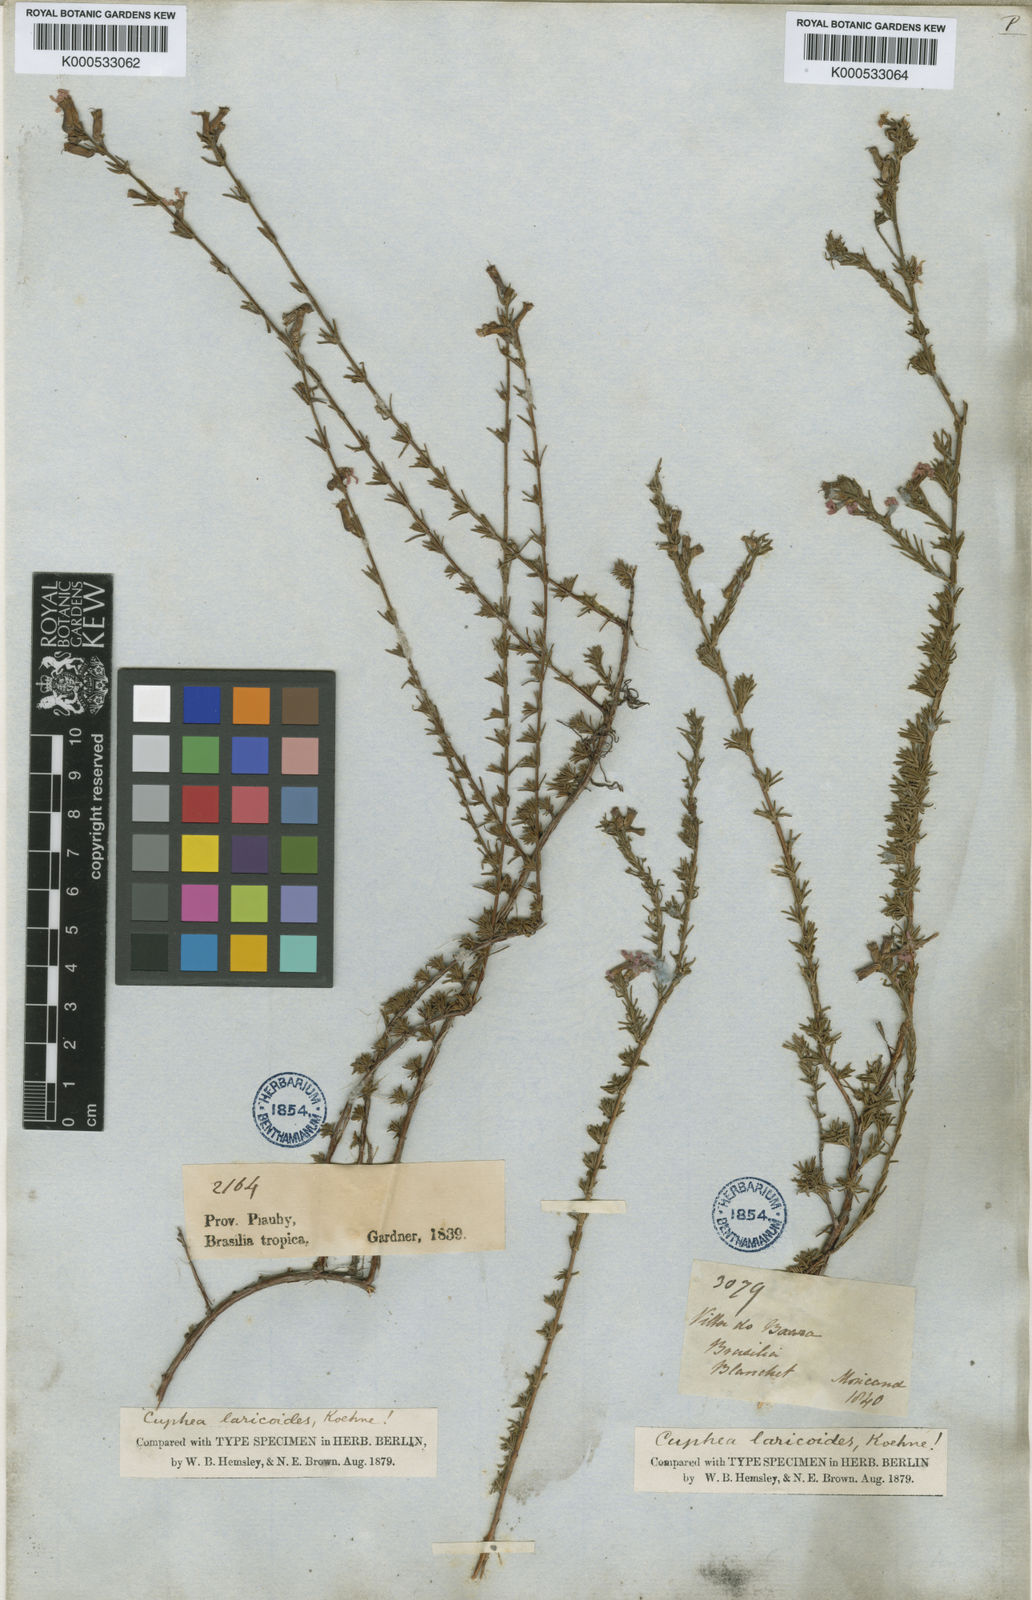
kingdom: Plantae
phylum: Tracheophyta
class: Magnoliopsida
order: Myrtales
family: Lythraceae
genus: Cuphea
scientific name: Cuphea laricoides
